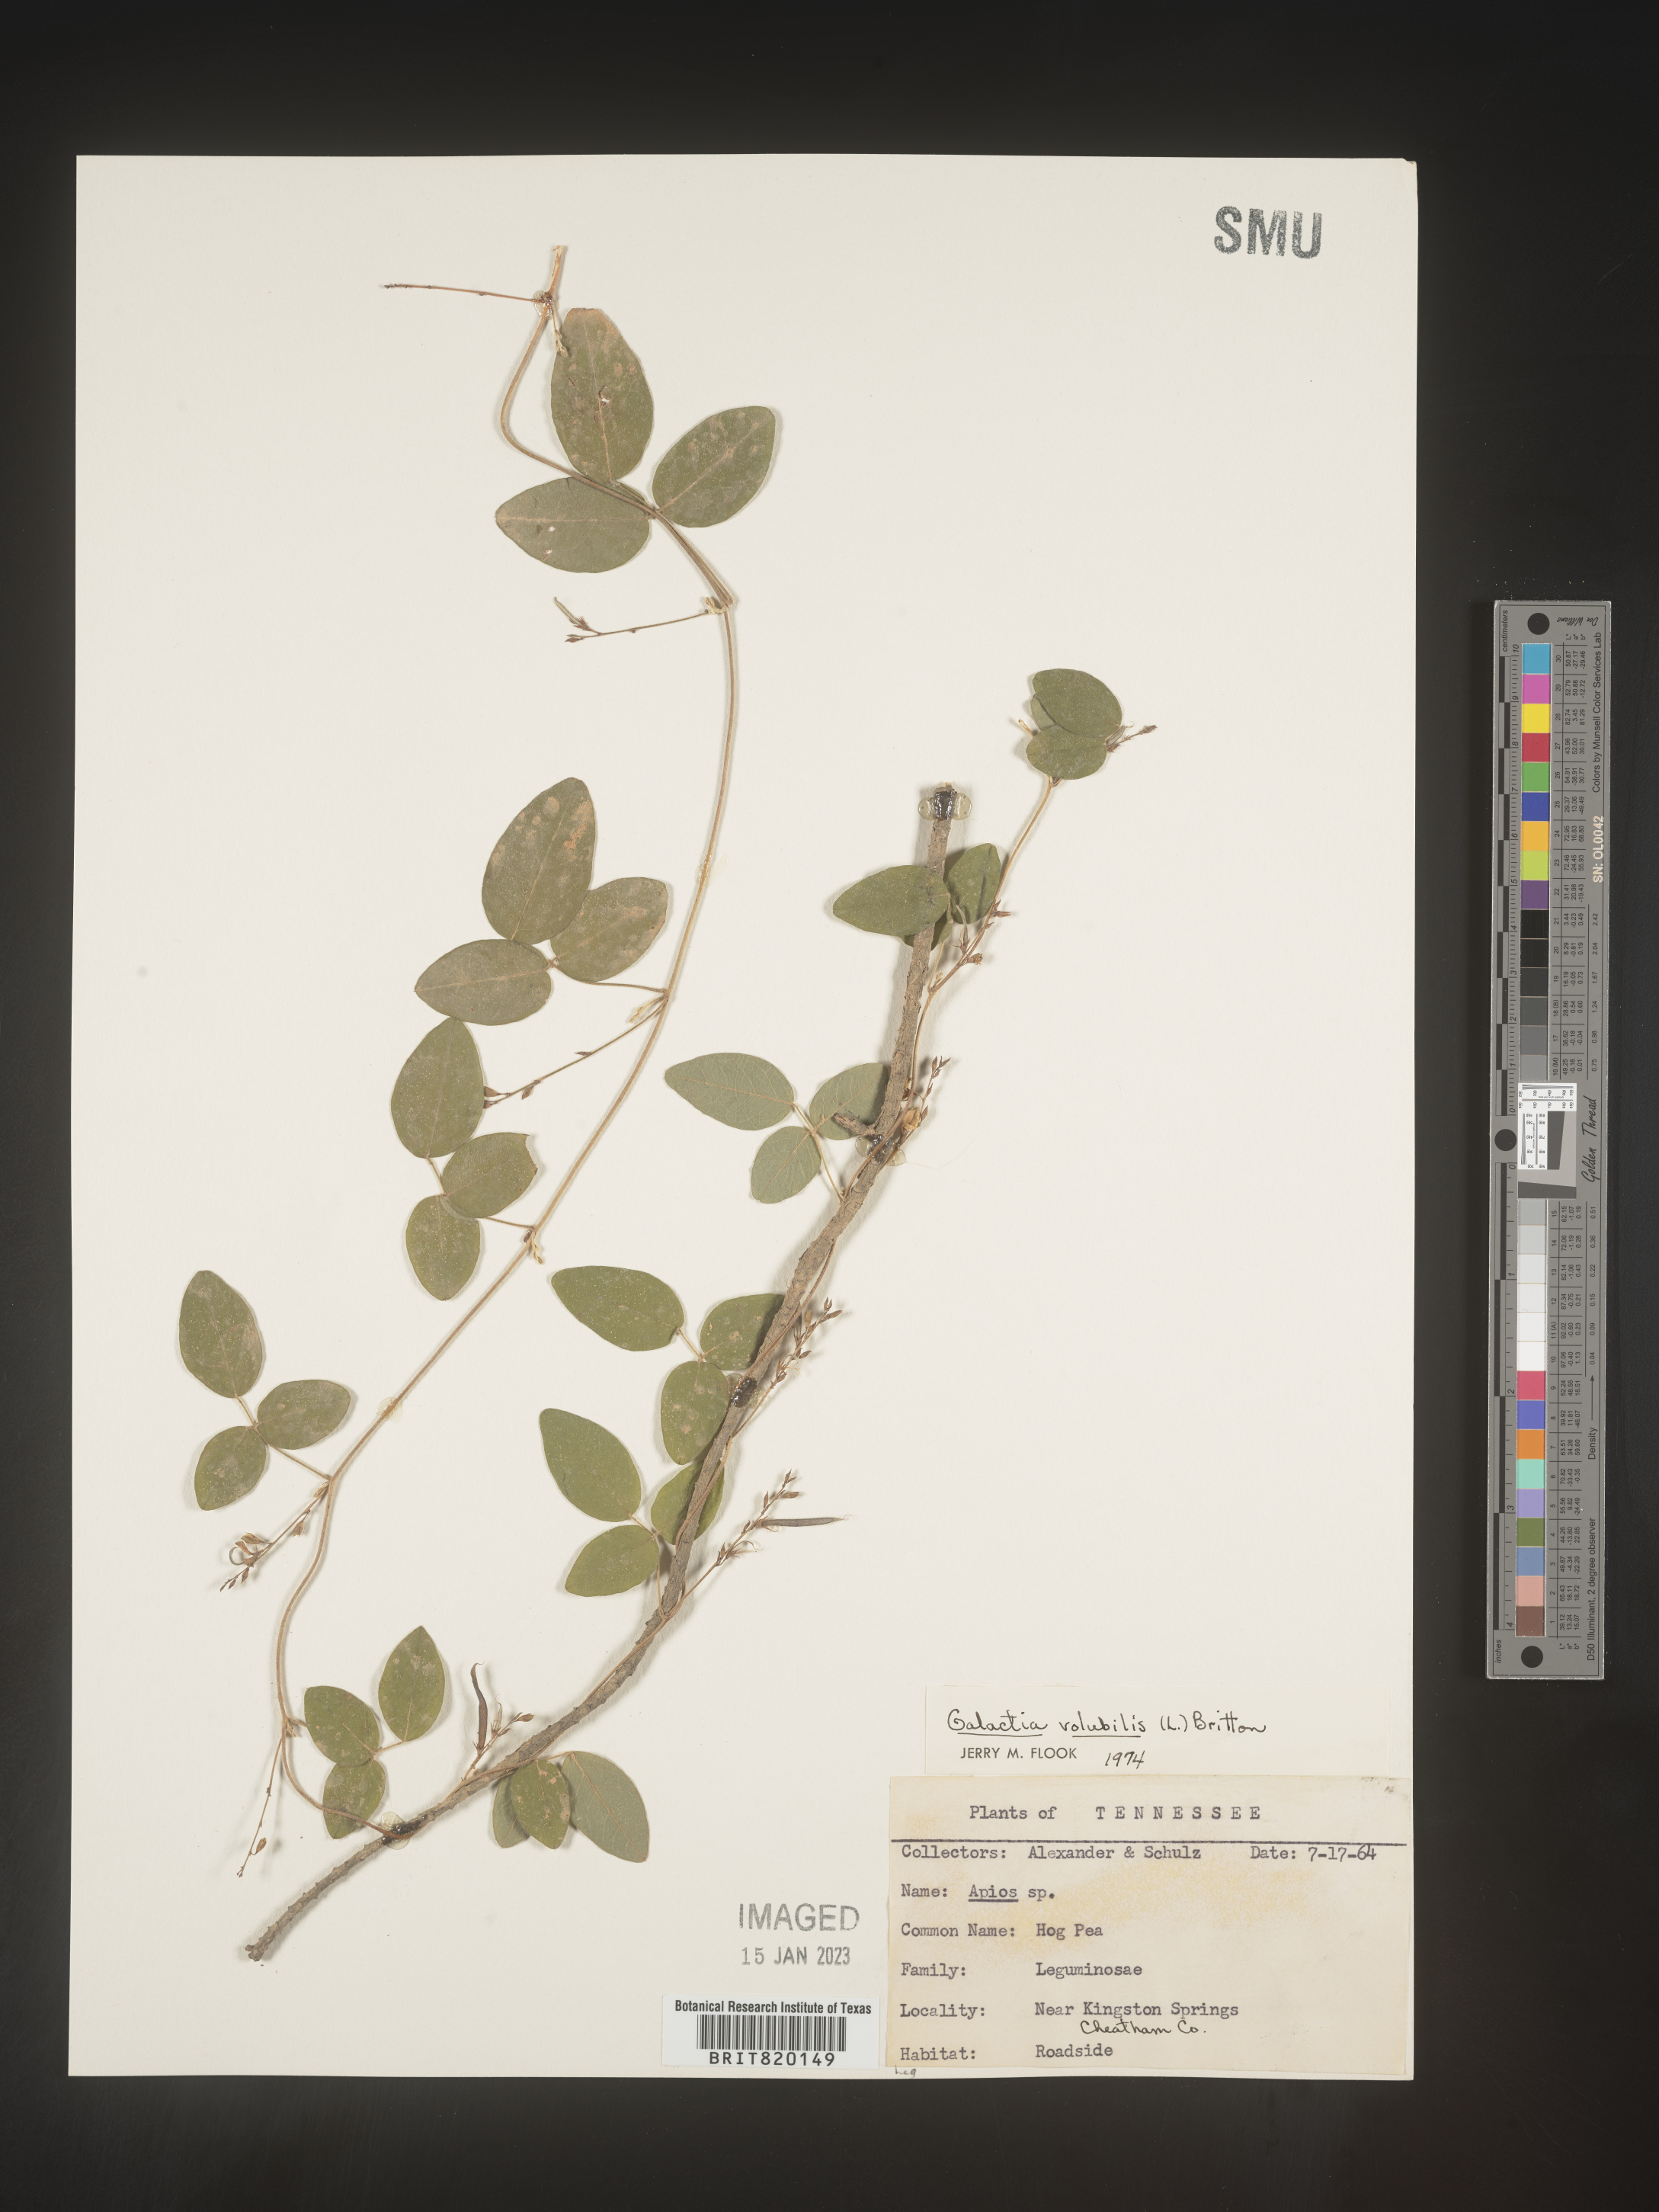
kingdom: Plantae
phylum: Tracheophyta
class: Magnoliopsida
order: Fabales
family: Fabaceae
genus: Galactia
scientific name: Galactia volubilis
